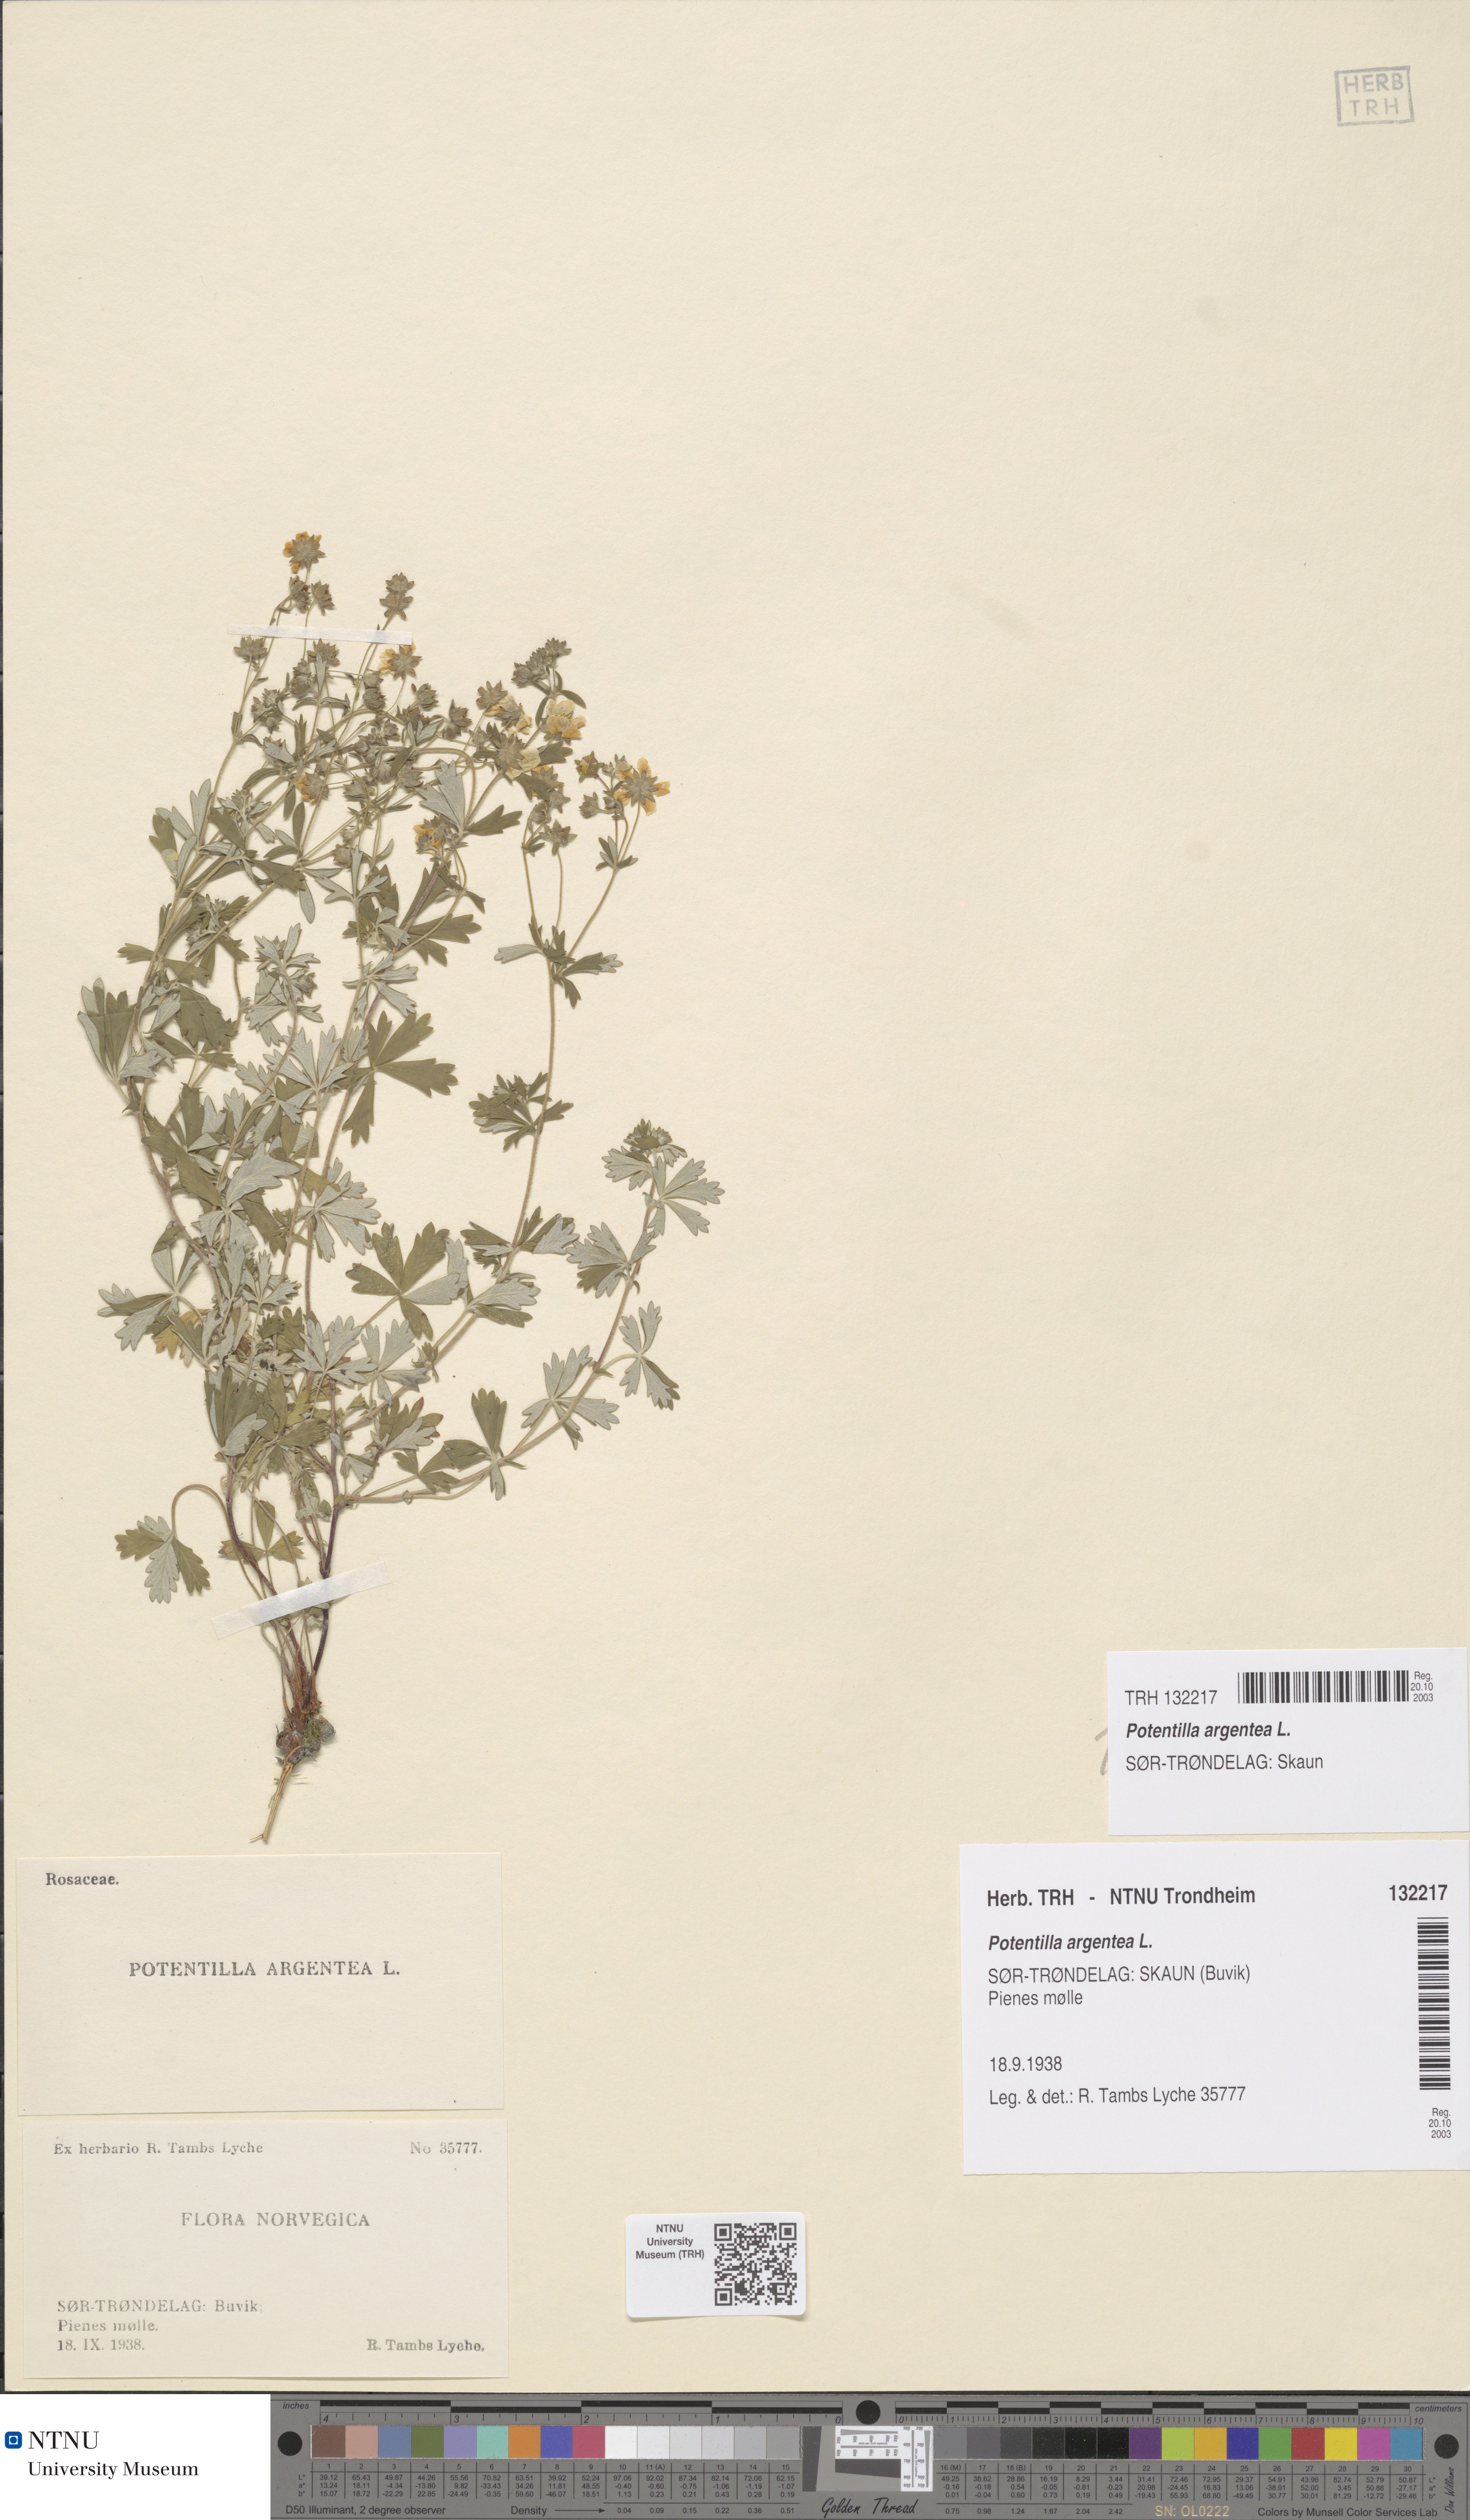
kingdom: Plantae
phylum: Tracheophyta
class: Magnoliopsida
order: Rosales
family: Rosaceae
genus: Potentilla
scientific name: Potentilla argentea
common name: Hoary cinquefoil
